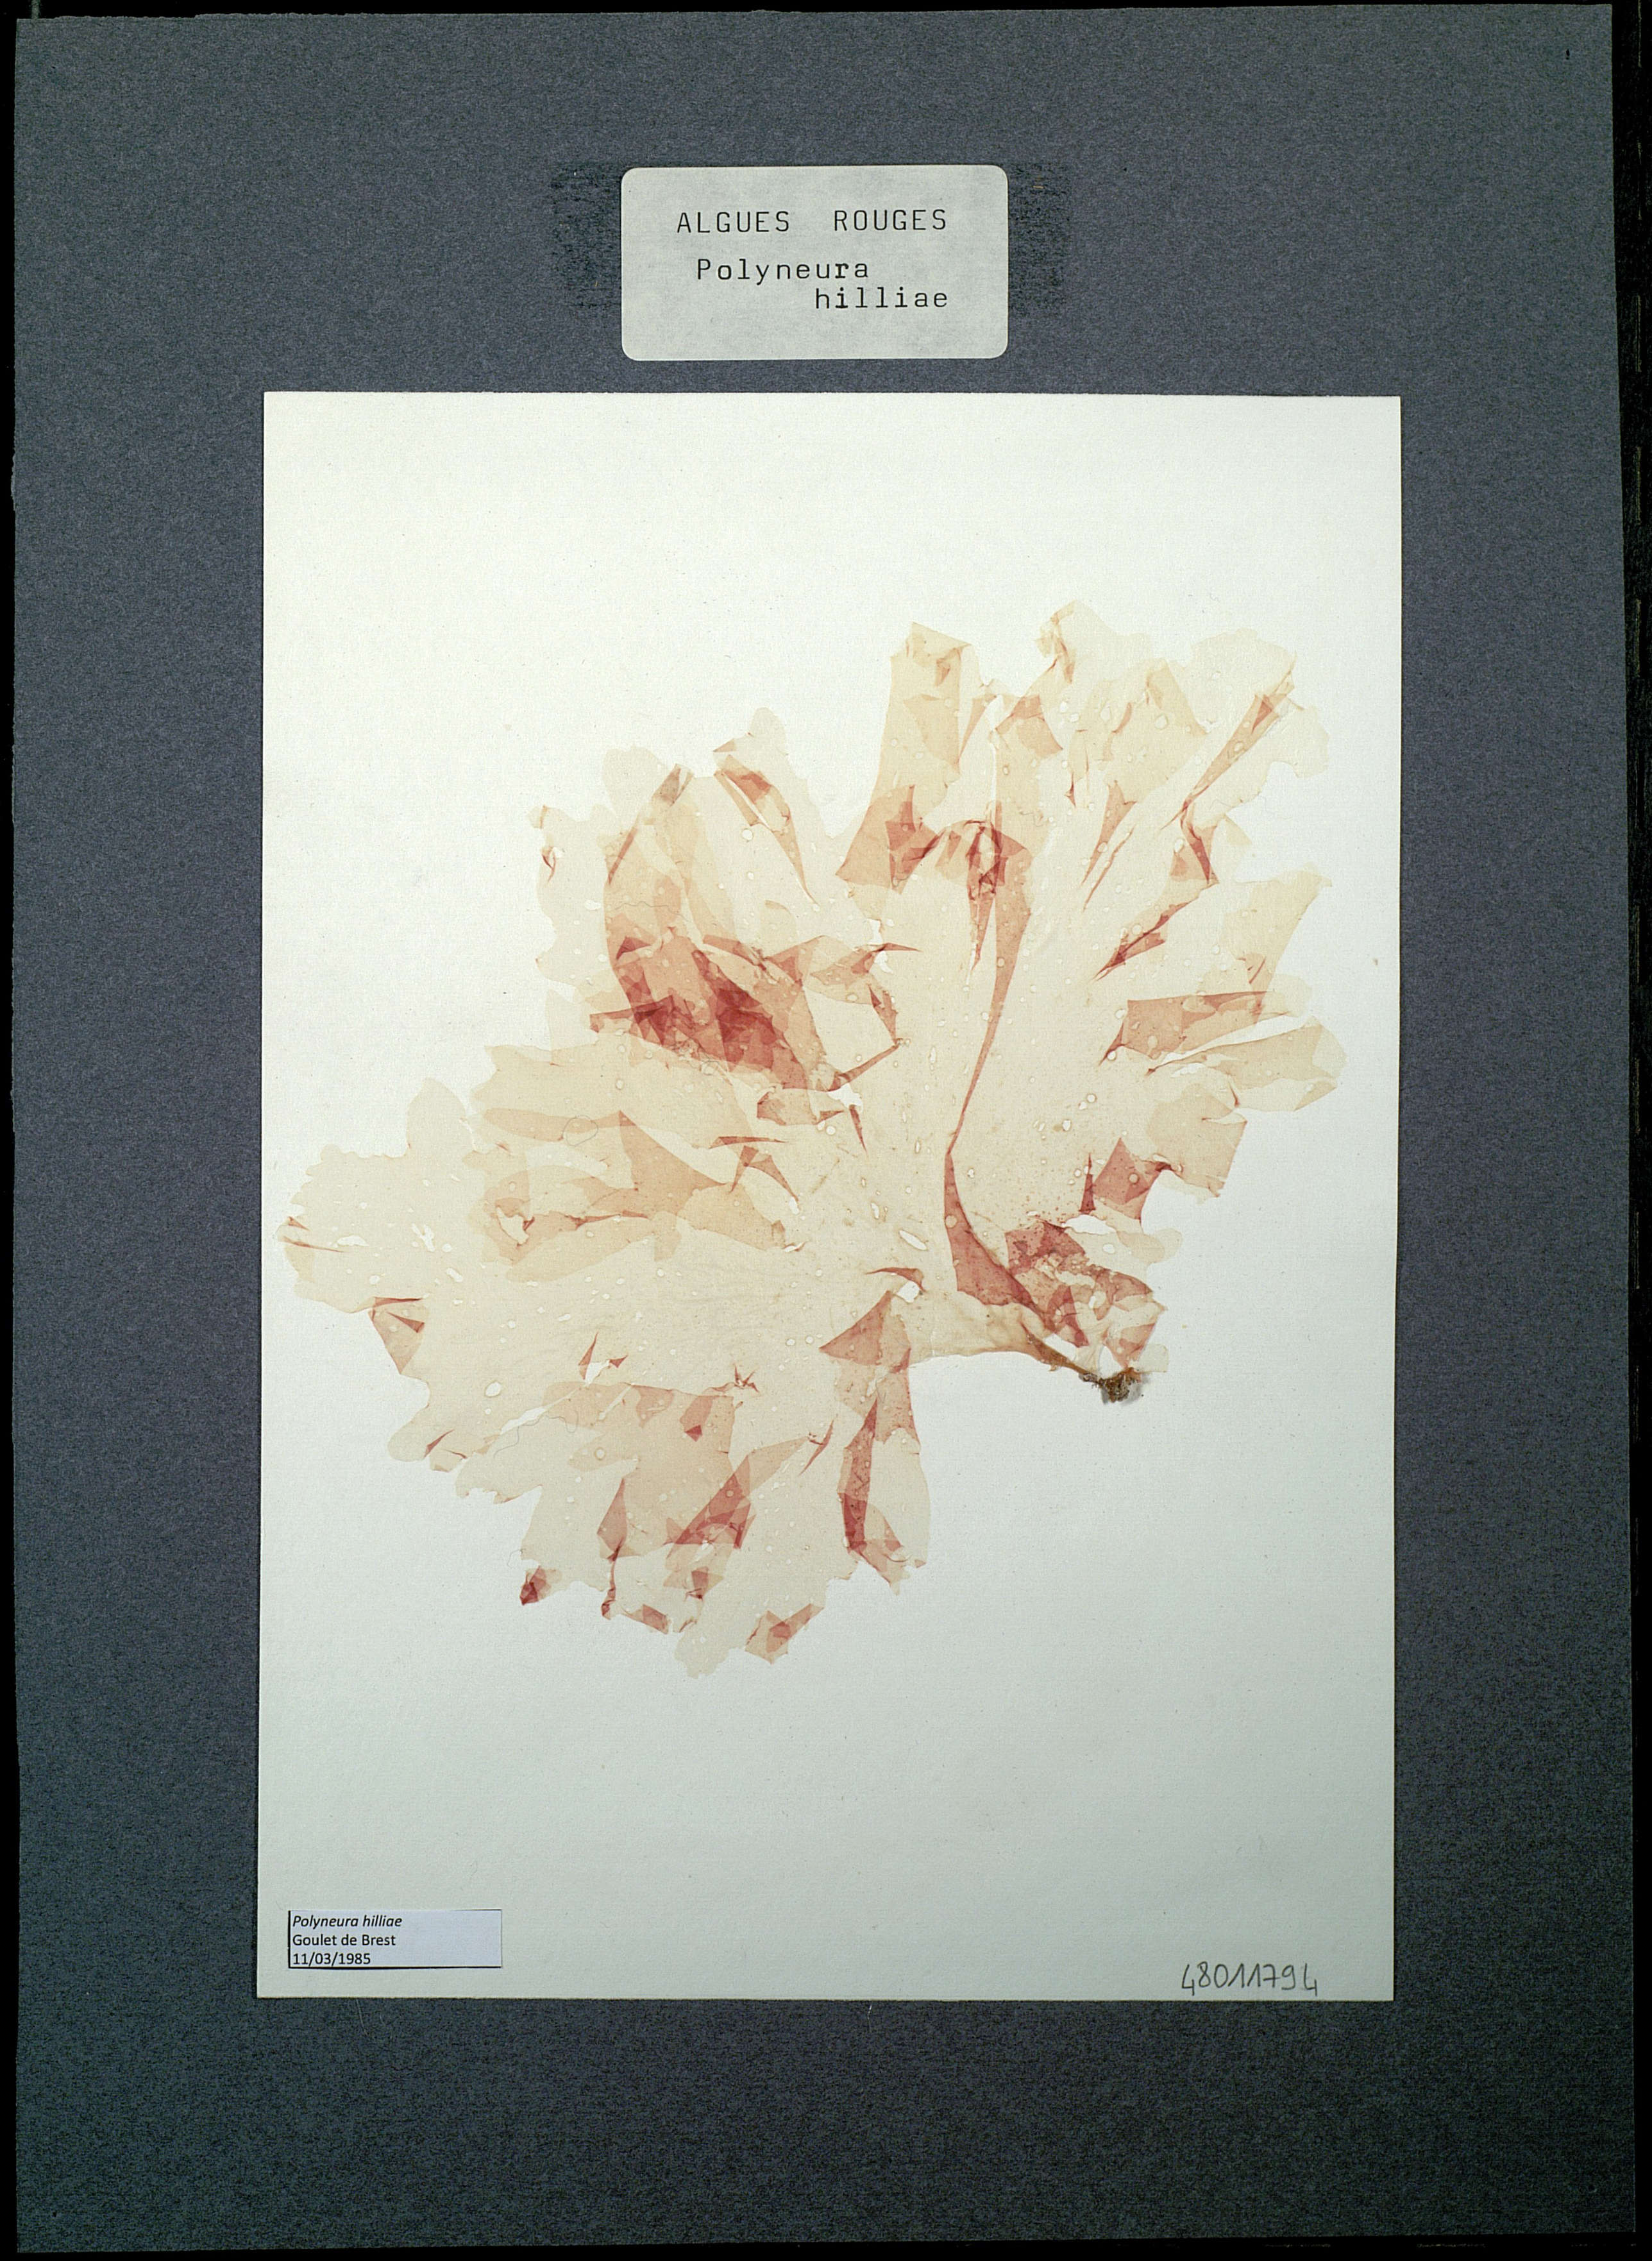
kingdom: Plantae
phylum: Rhodophyta
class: Florideophyceae
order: Ceramiales
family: Delesseriaceae
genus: Polyneura
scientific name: Polyneura bonnemaisonii
